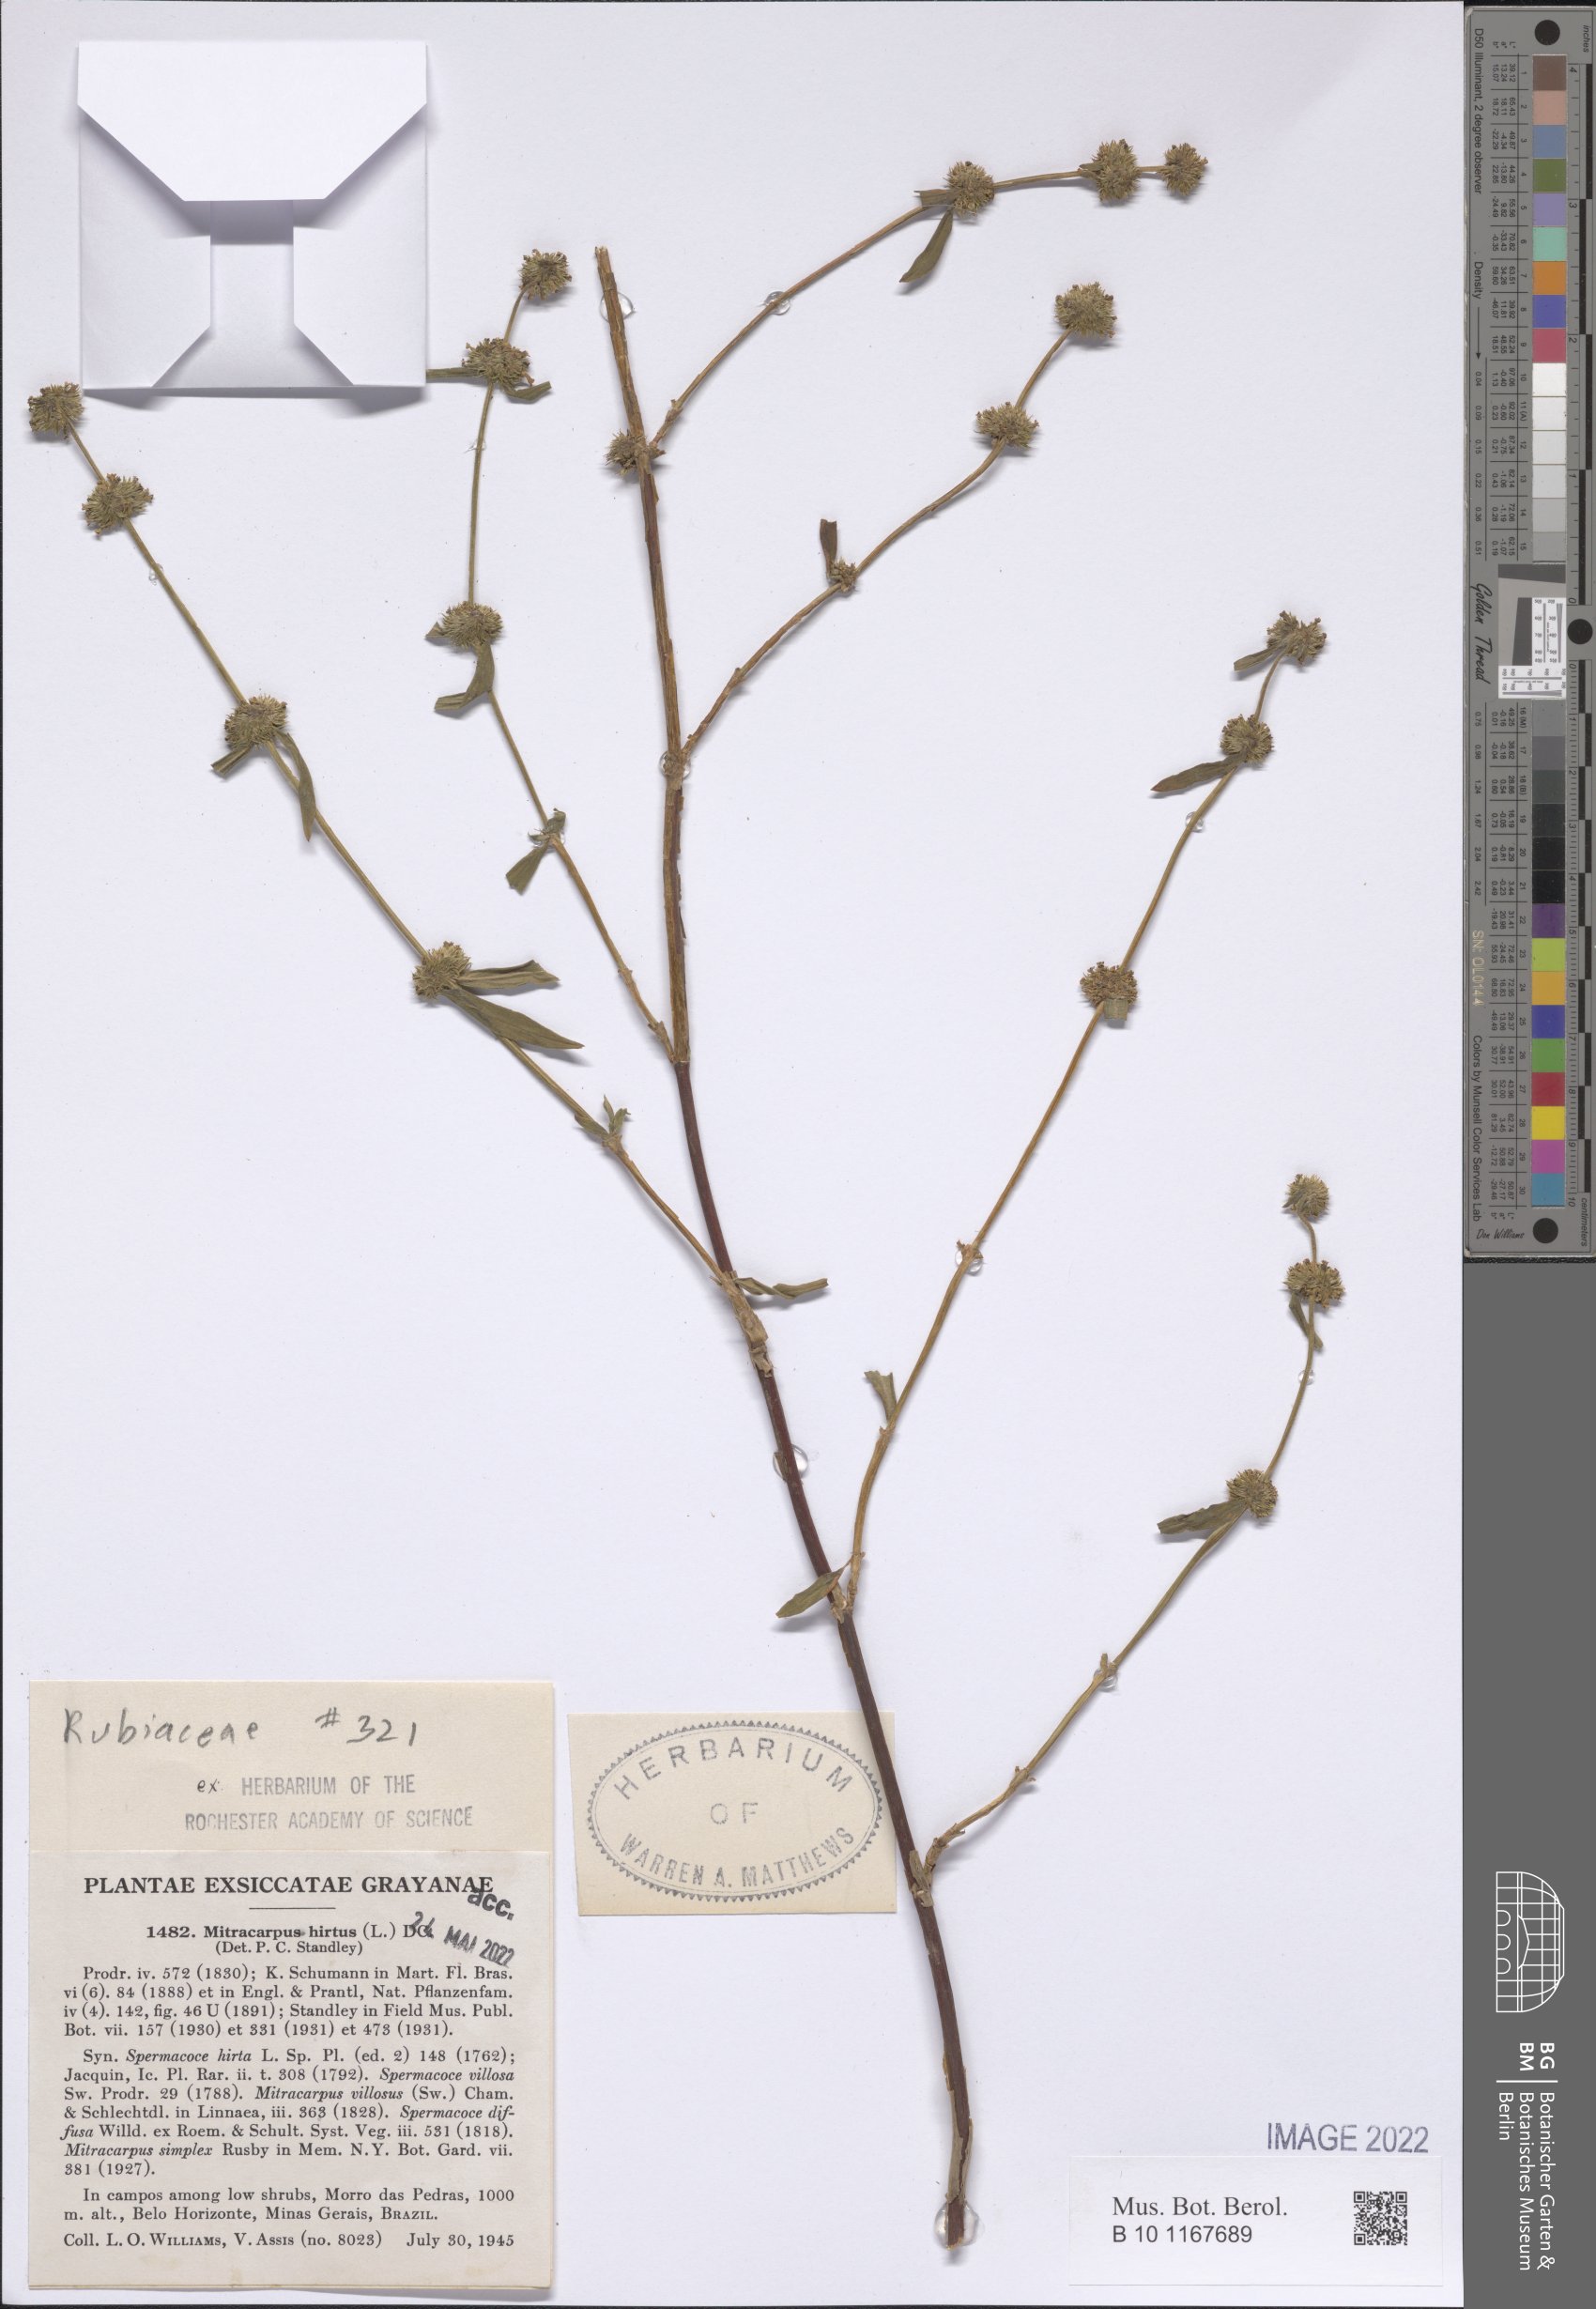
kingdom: Plantae
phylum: Tracheophyta
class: Magnoliopsida
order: Gentianales
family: Rubiaceae
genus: Mitracarpus
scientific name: Mitracarpus hirtus
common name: Tropical girdlepod
